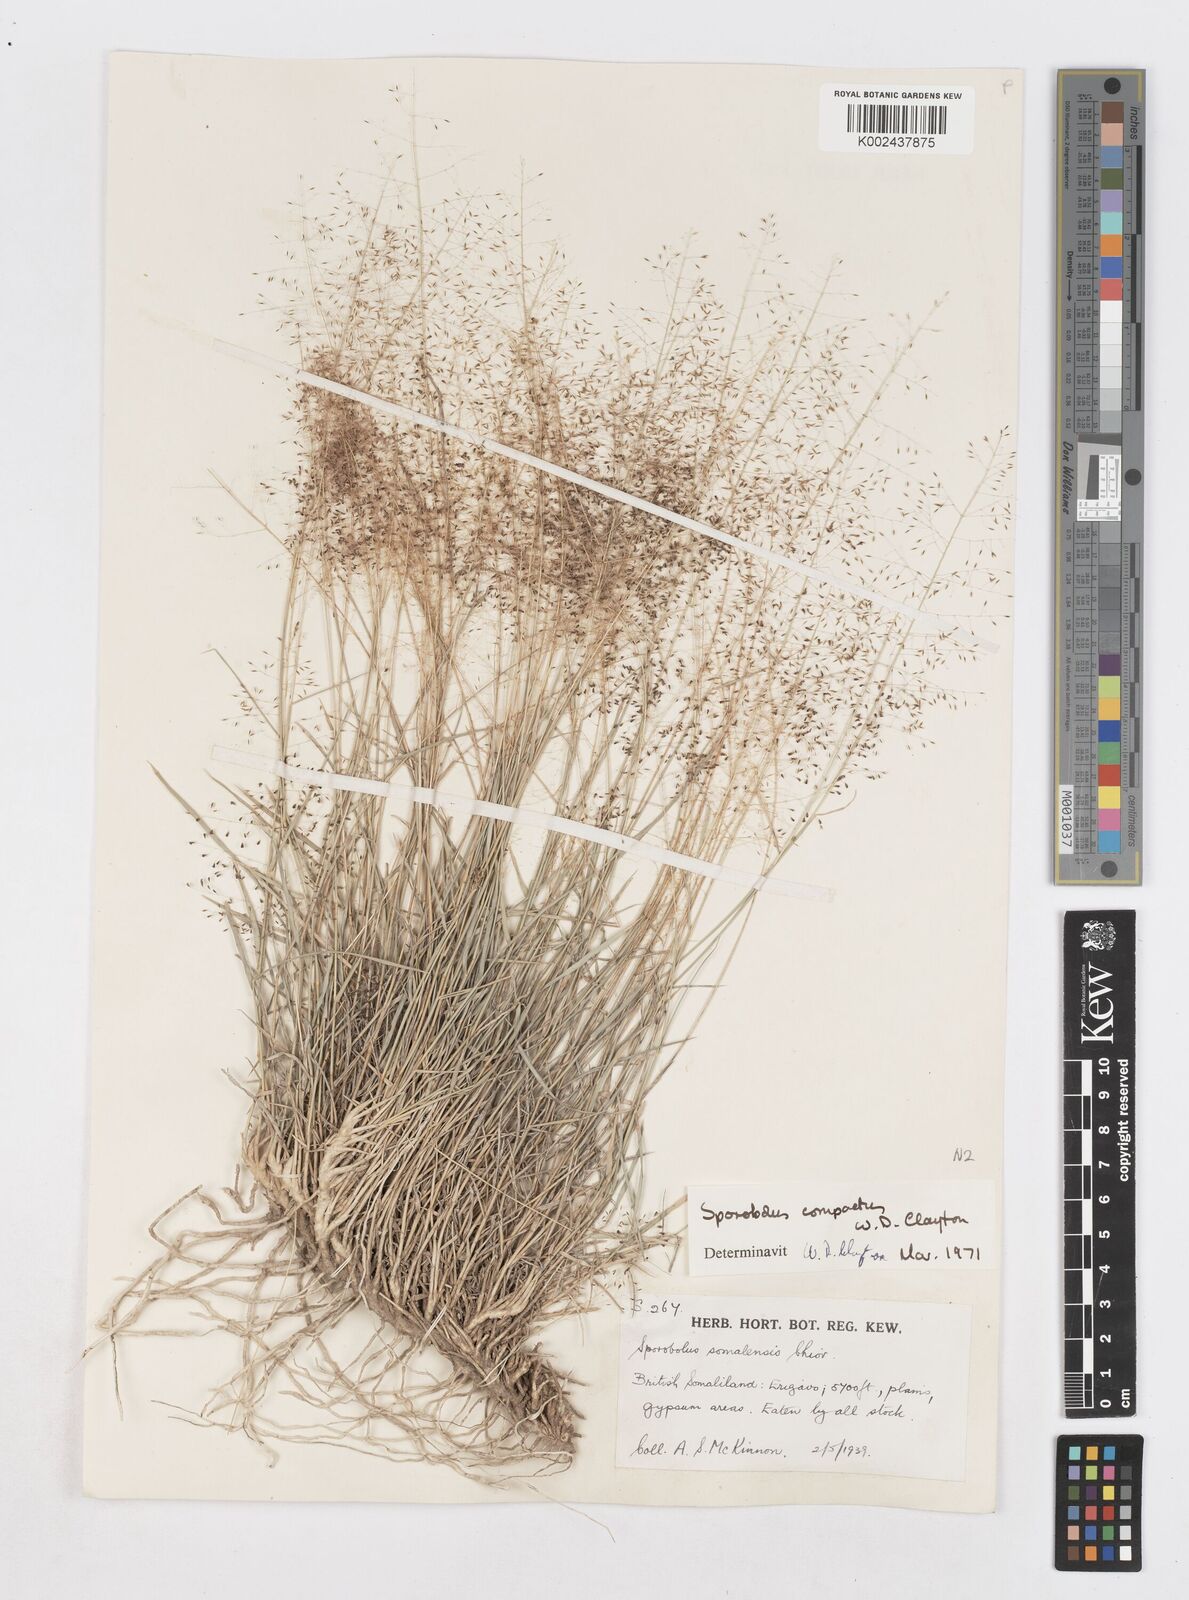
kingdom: Plantae
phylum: Tracheophyta
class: Liliopsida
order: Poales
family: Poaceae
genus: Sporobolus
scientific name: Sporobolus compactus
